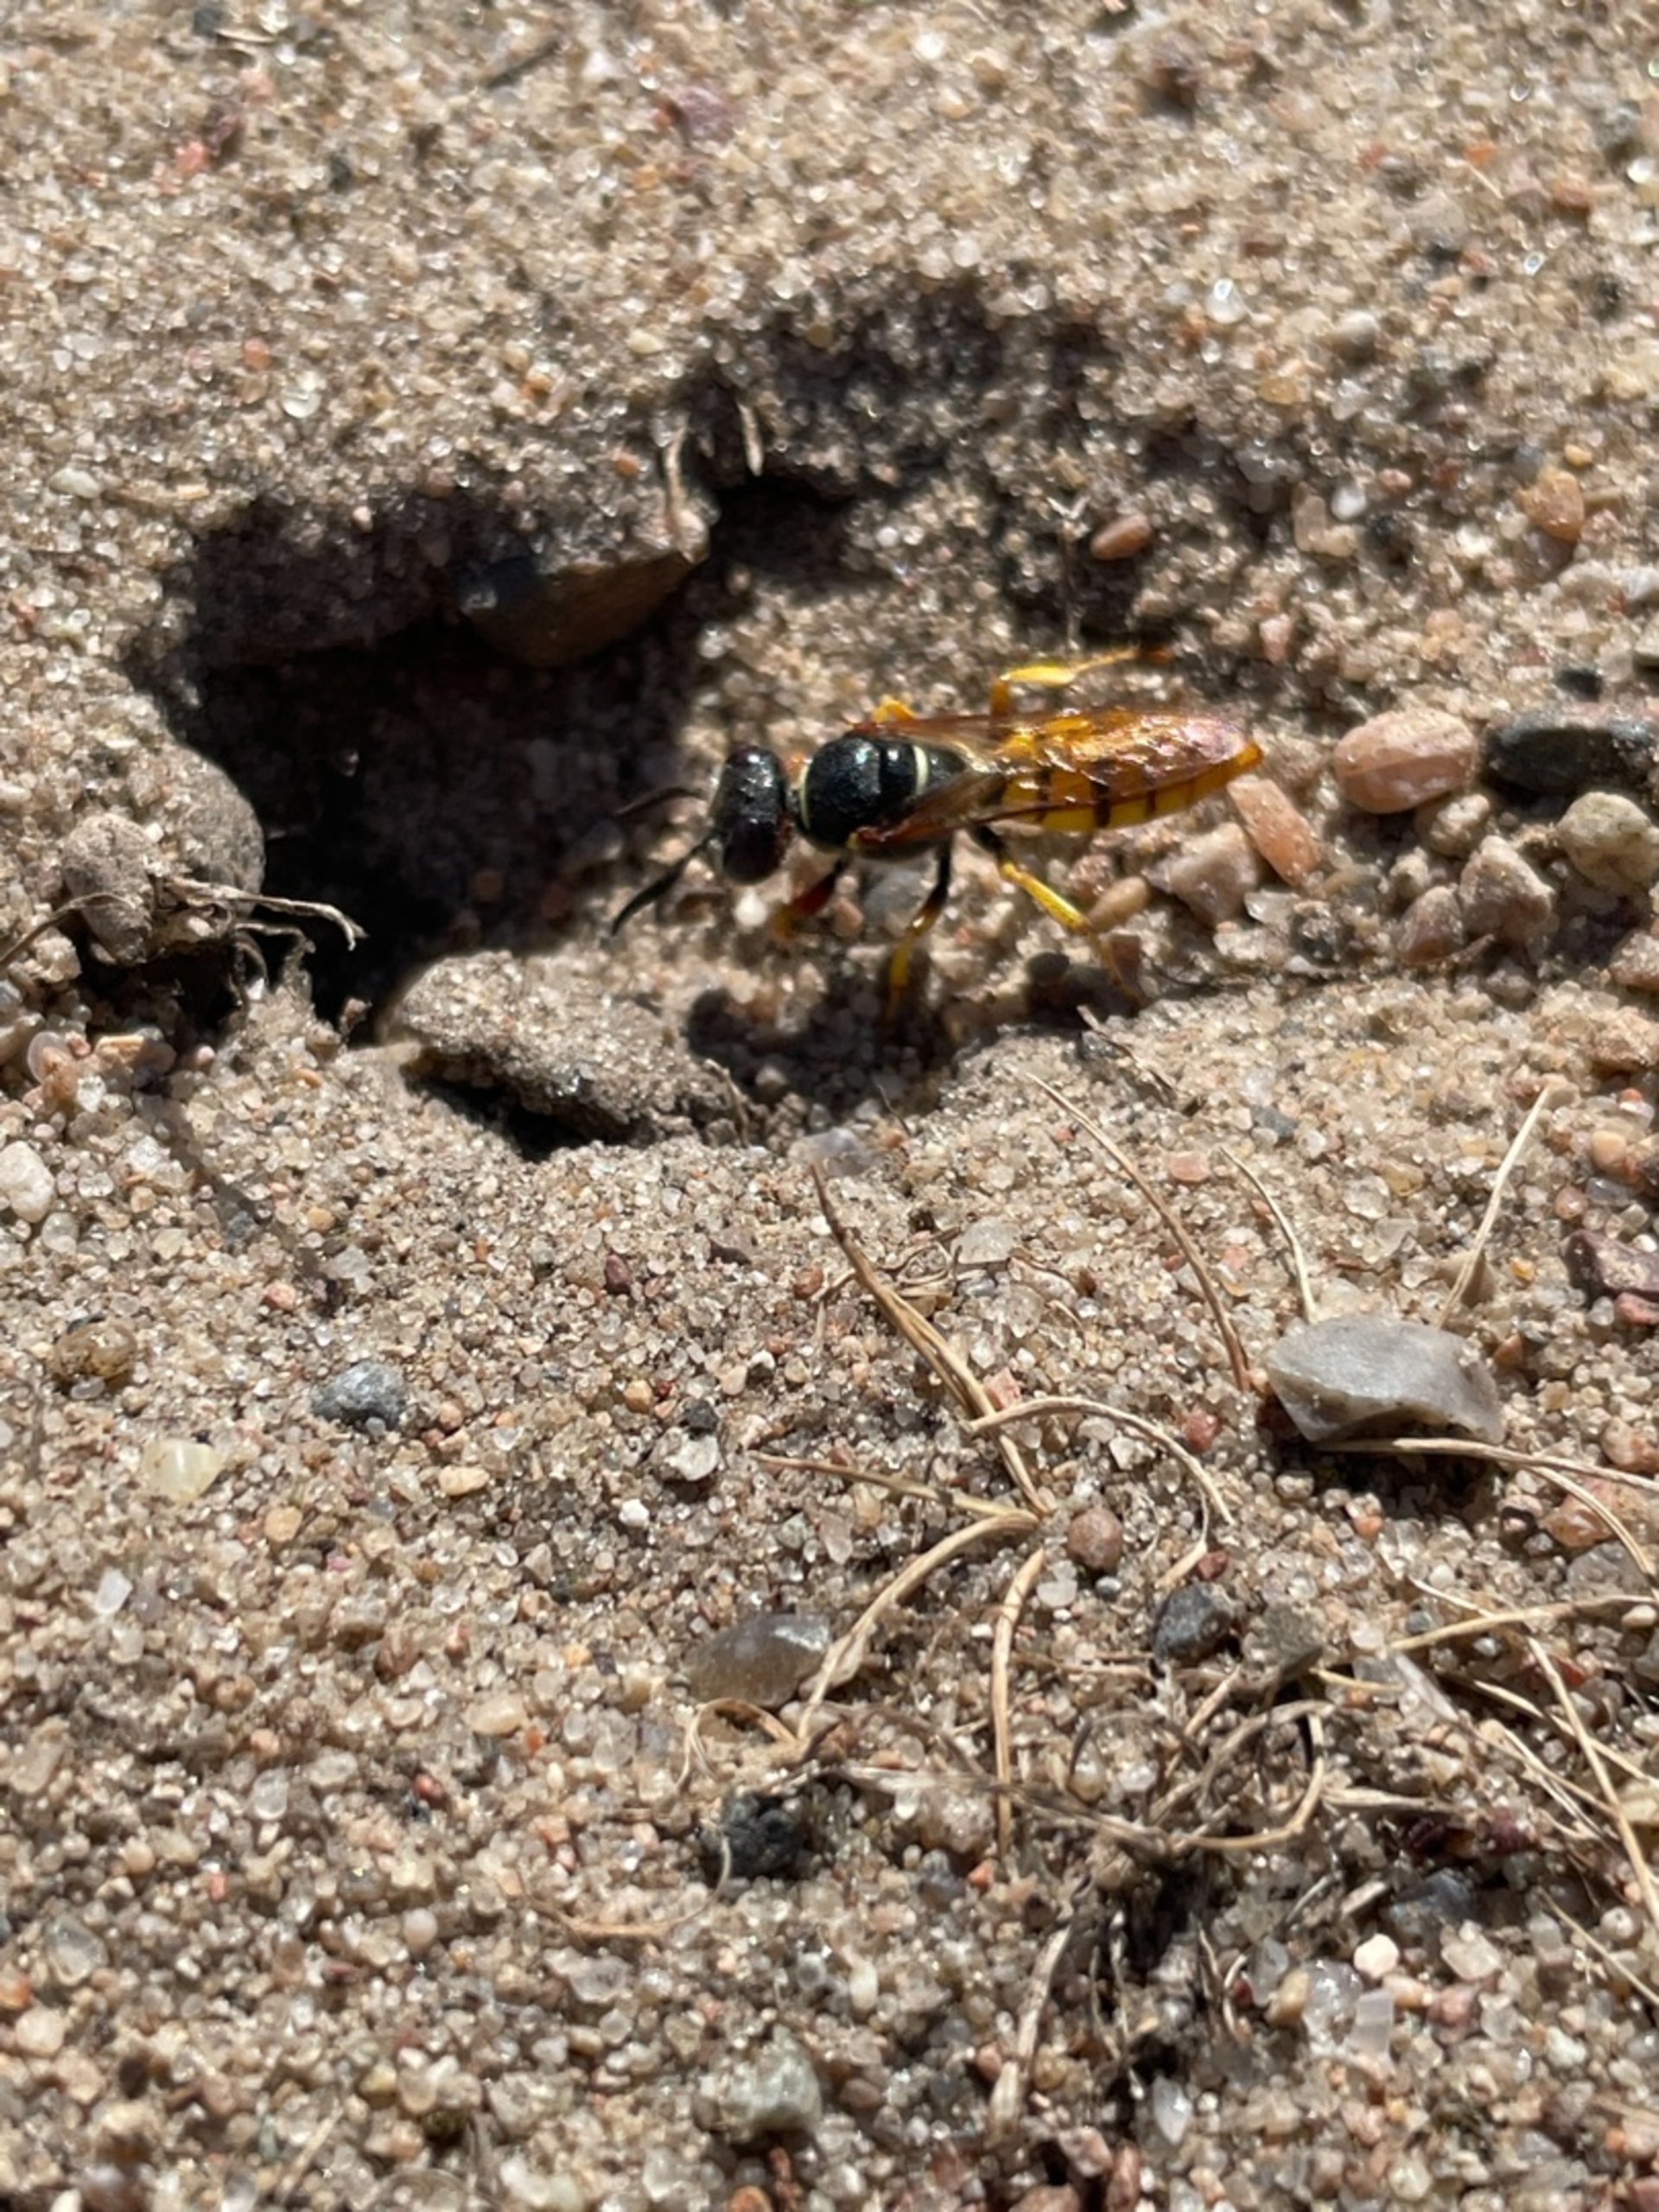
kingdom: Animalia
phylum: Arthropoda
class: Insecta
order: Hymenoptera
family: Crabronidae
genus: Philanthus
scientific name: Philanthus triangulum
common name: Biulv
